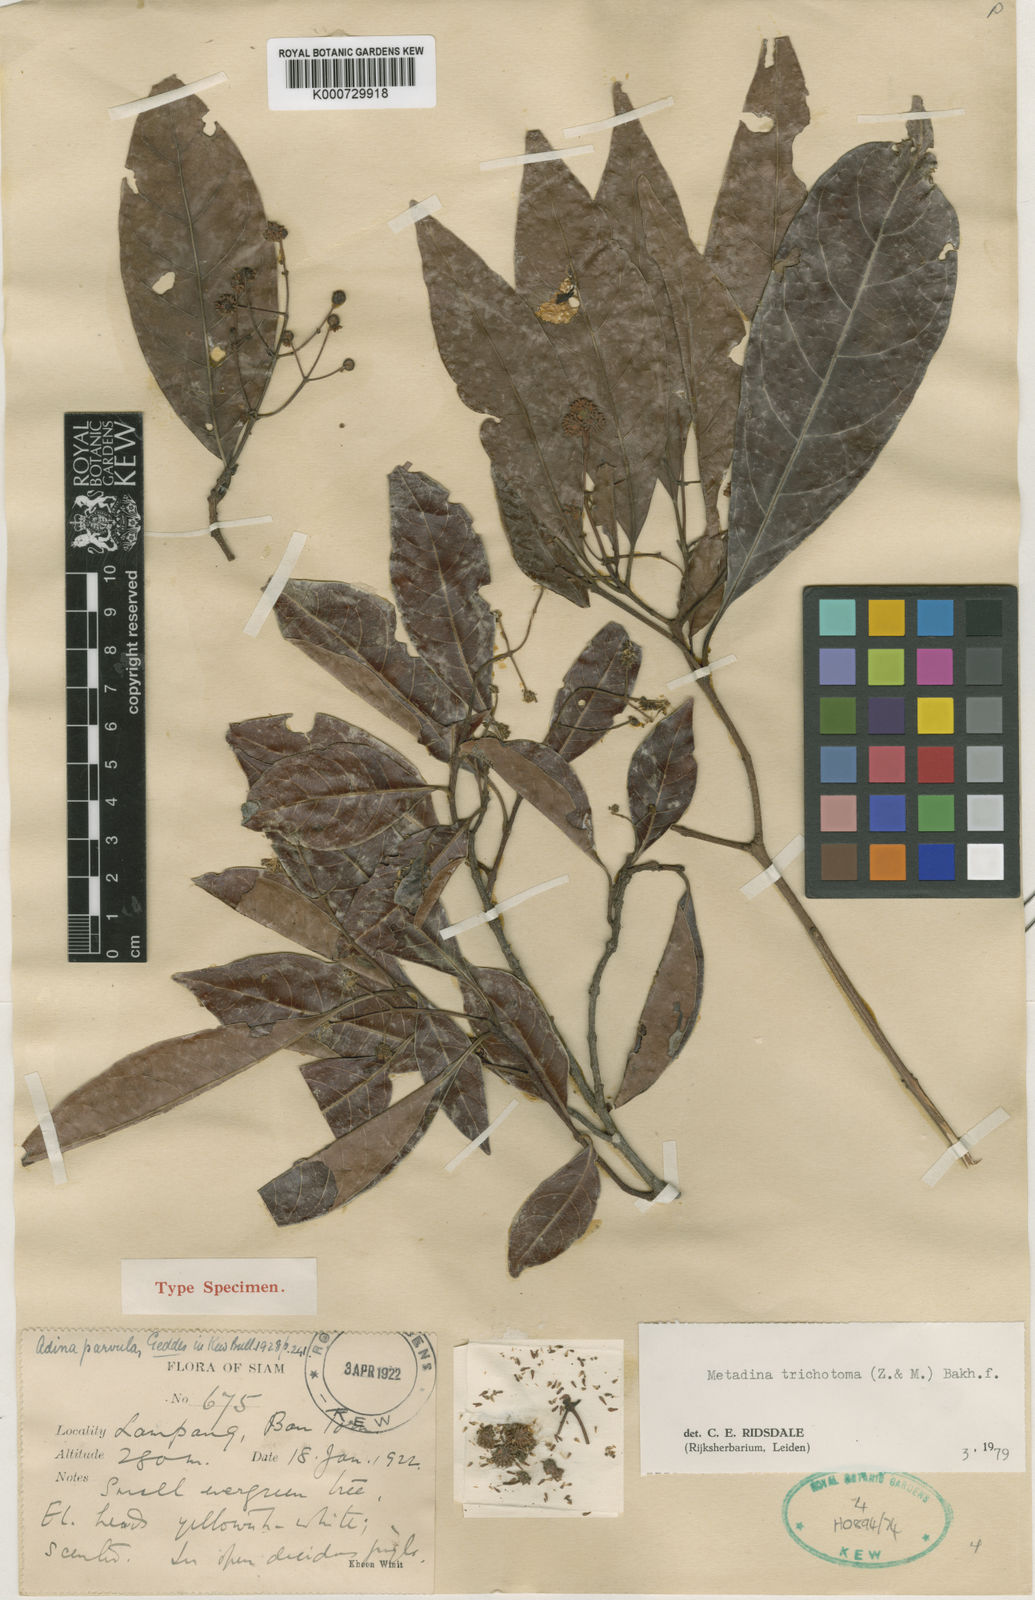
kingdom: Plantae
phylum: Tracheophyta
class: Magnoliopsida
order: Gentianales
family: Rubiaceae
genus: Adina
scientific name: Adina trichotoma
